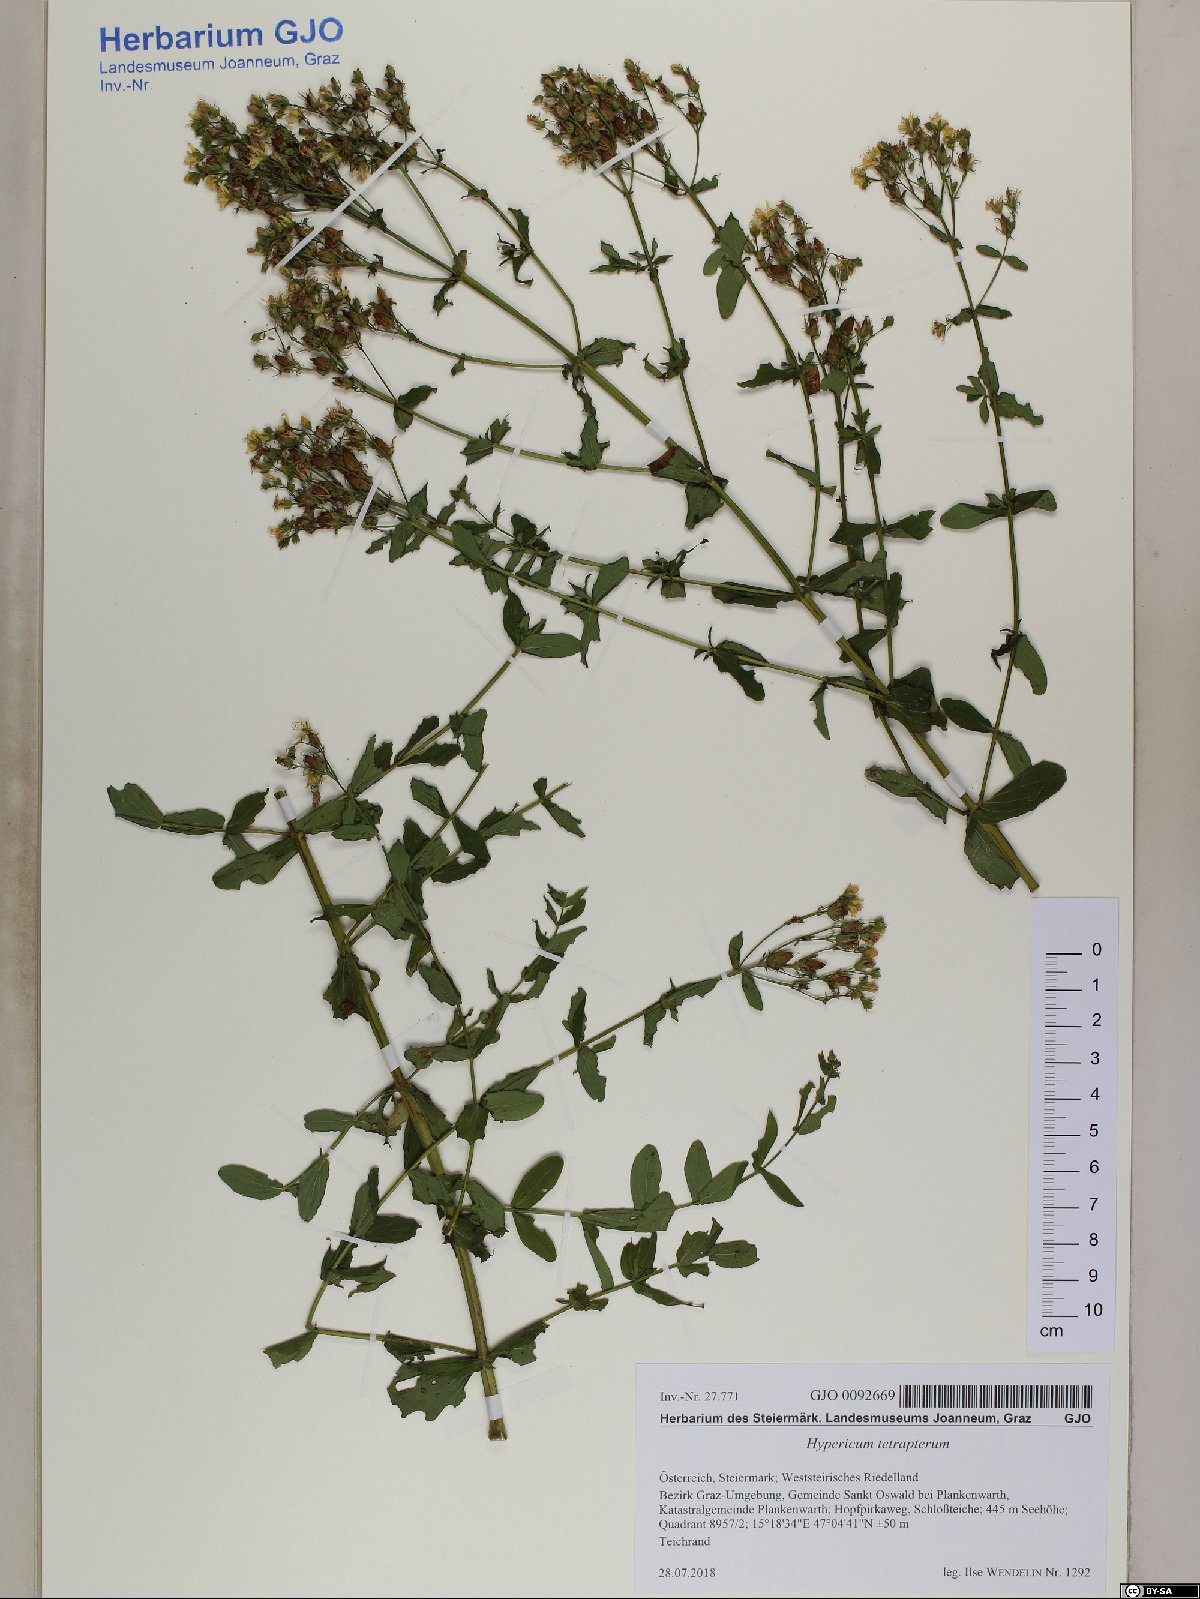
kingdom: Plantae
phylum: Tracheophyta
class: Magnoliopsida
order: Malpighiales
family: Hypericaceae
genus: Hypericum
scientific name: Hypericum tetrapterum
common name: Square-stalked st. john's-wort
